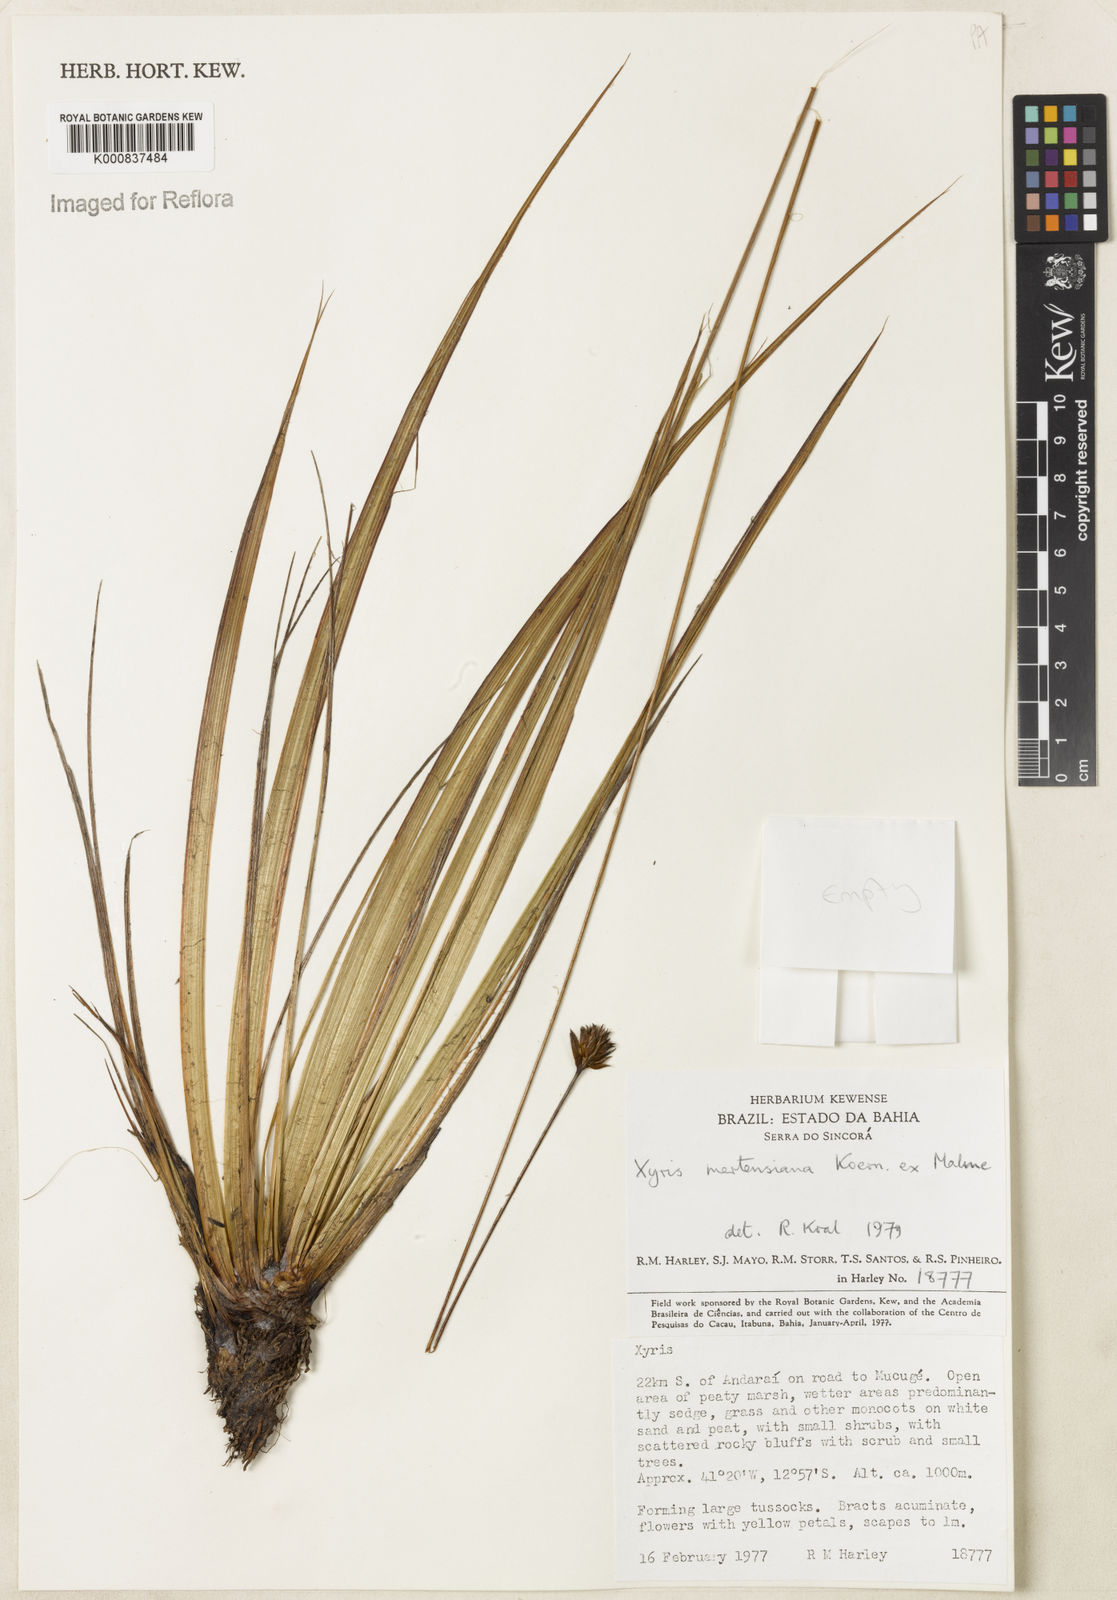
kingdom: Plantae
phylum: Tracheophyta
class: Liliopsida
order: Poales
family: Xyridaceae
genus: Xyris
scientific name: Xyris
